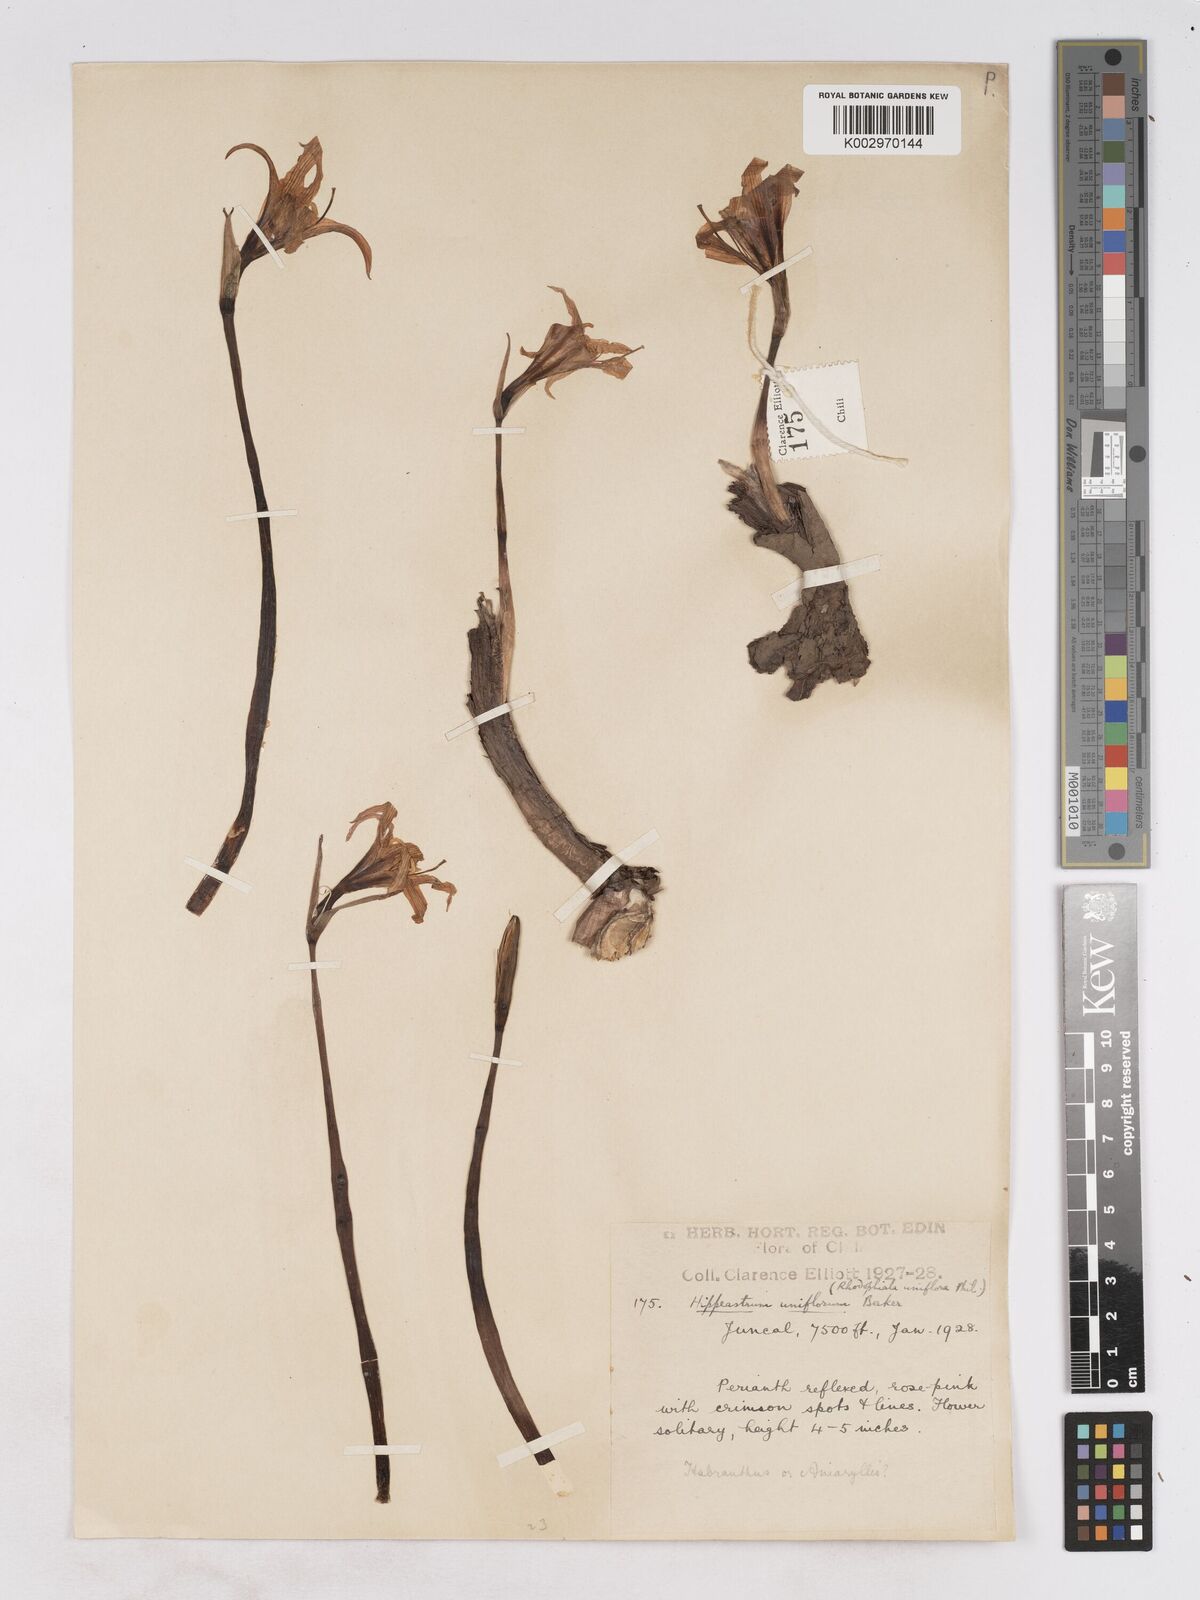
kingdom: Plantae
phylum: Tracheophyta
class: Liliopsida
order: Asparagales
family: Amaryllidaceae
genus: Paposoa
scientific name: Paposoa laeta
